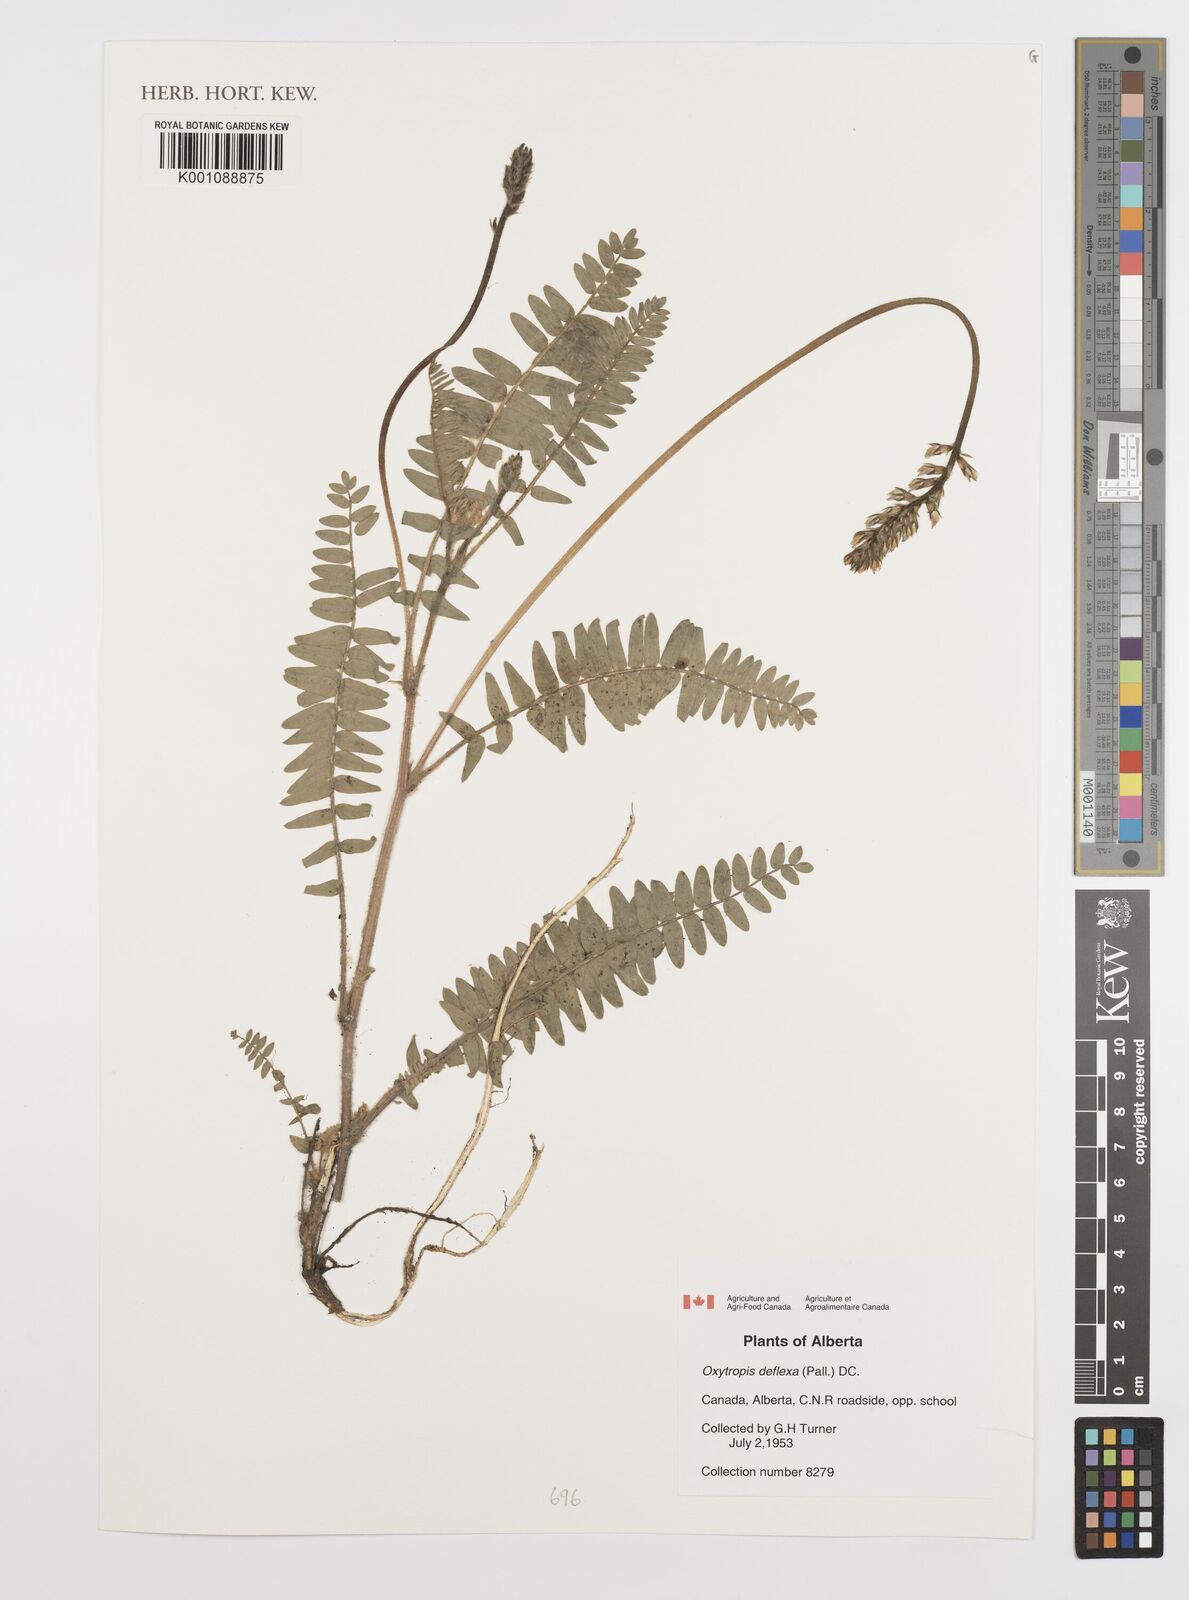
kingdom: Plantae
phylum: Tracheophyta
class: Magnoliopsida
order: Fabales
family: Fabaceae
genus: Oxytropis
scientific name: Oxytropis deflexa
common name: Stemmed oxytrope
